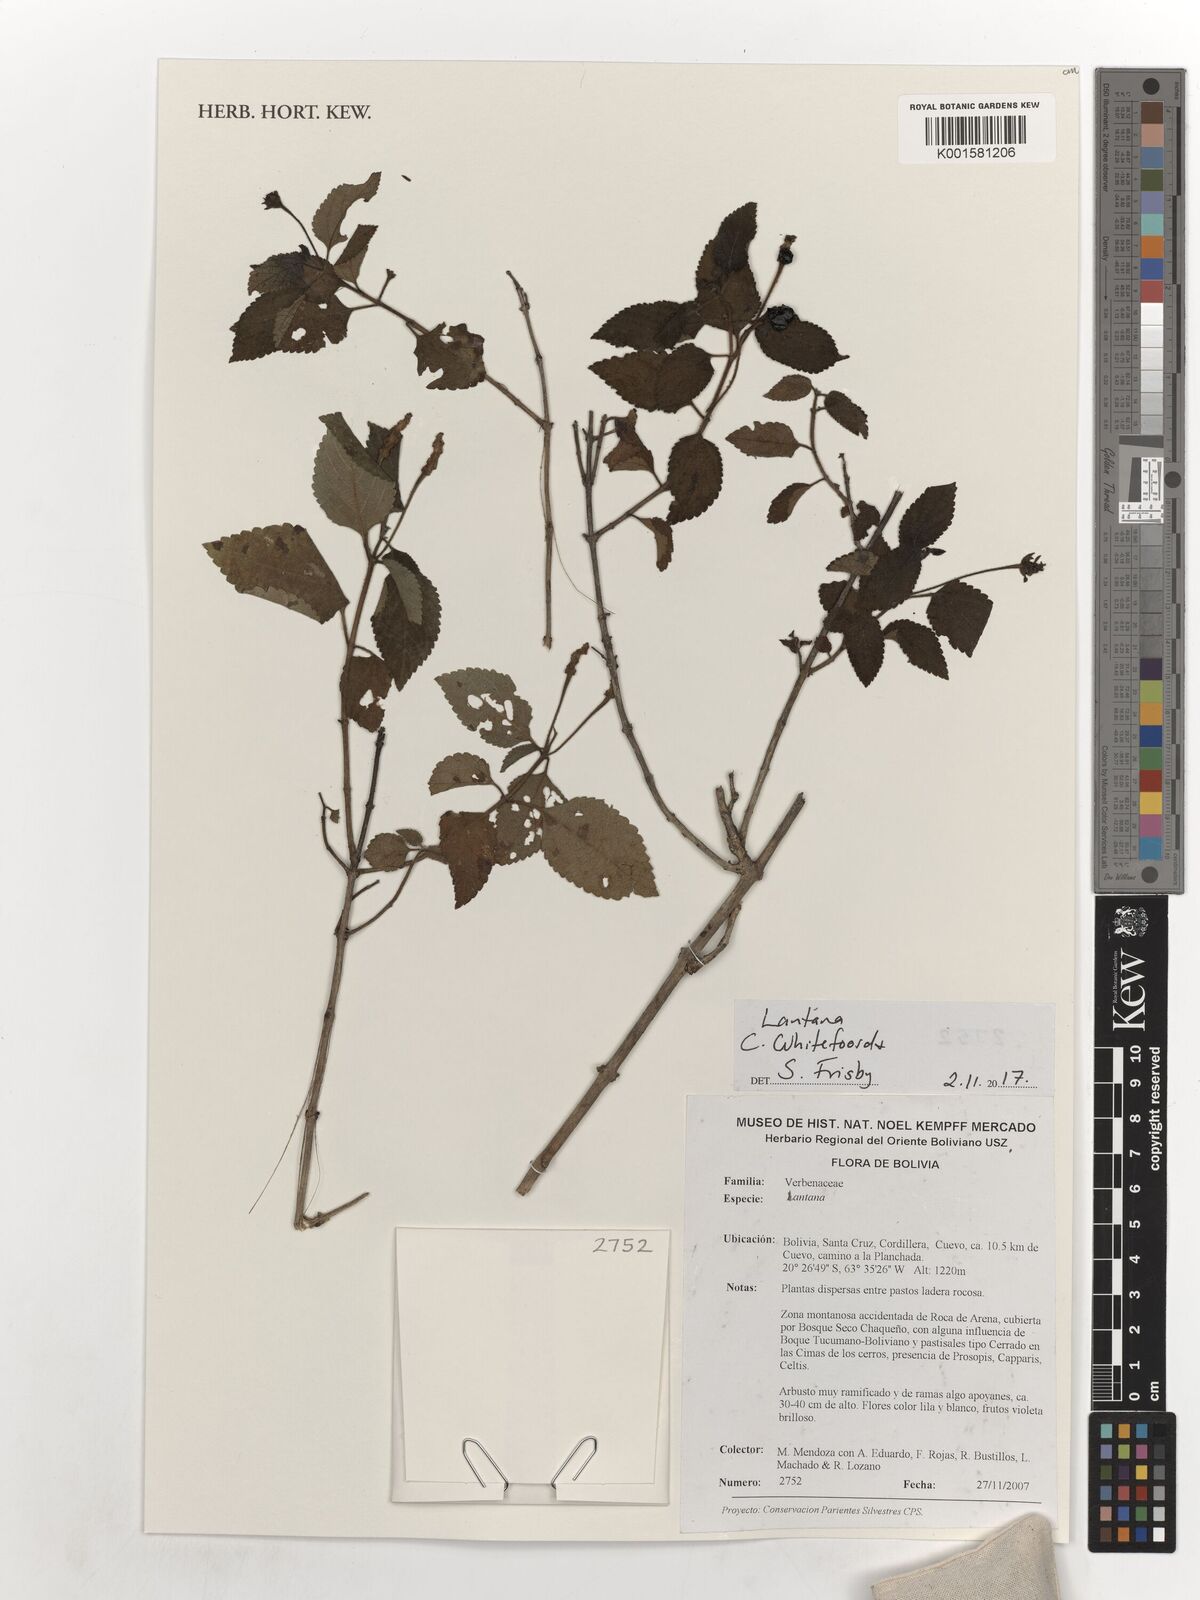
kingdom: Plantae
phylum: Tracheophyta
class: Magnoliopsida
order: Lamiales
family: Verbenaceae
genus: Lantana
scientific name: Lantana
